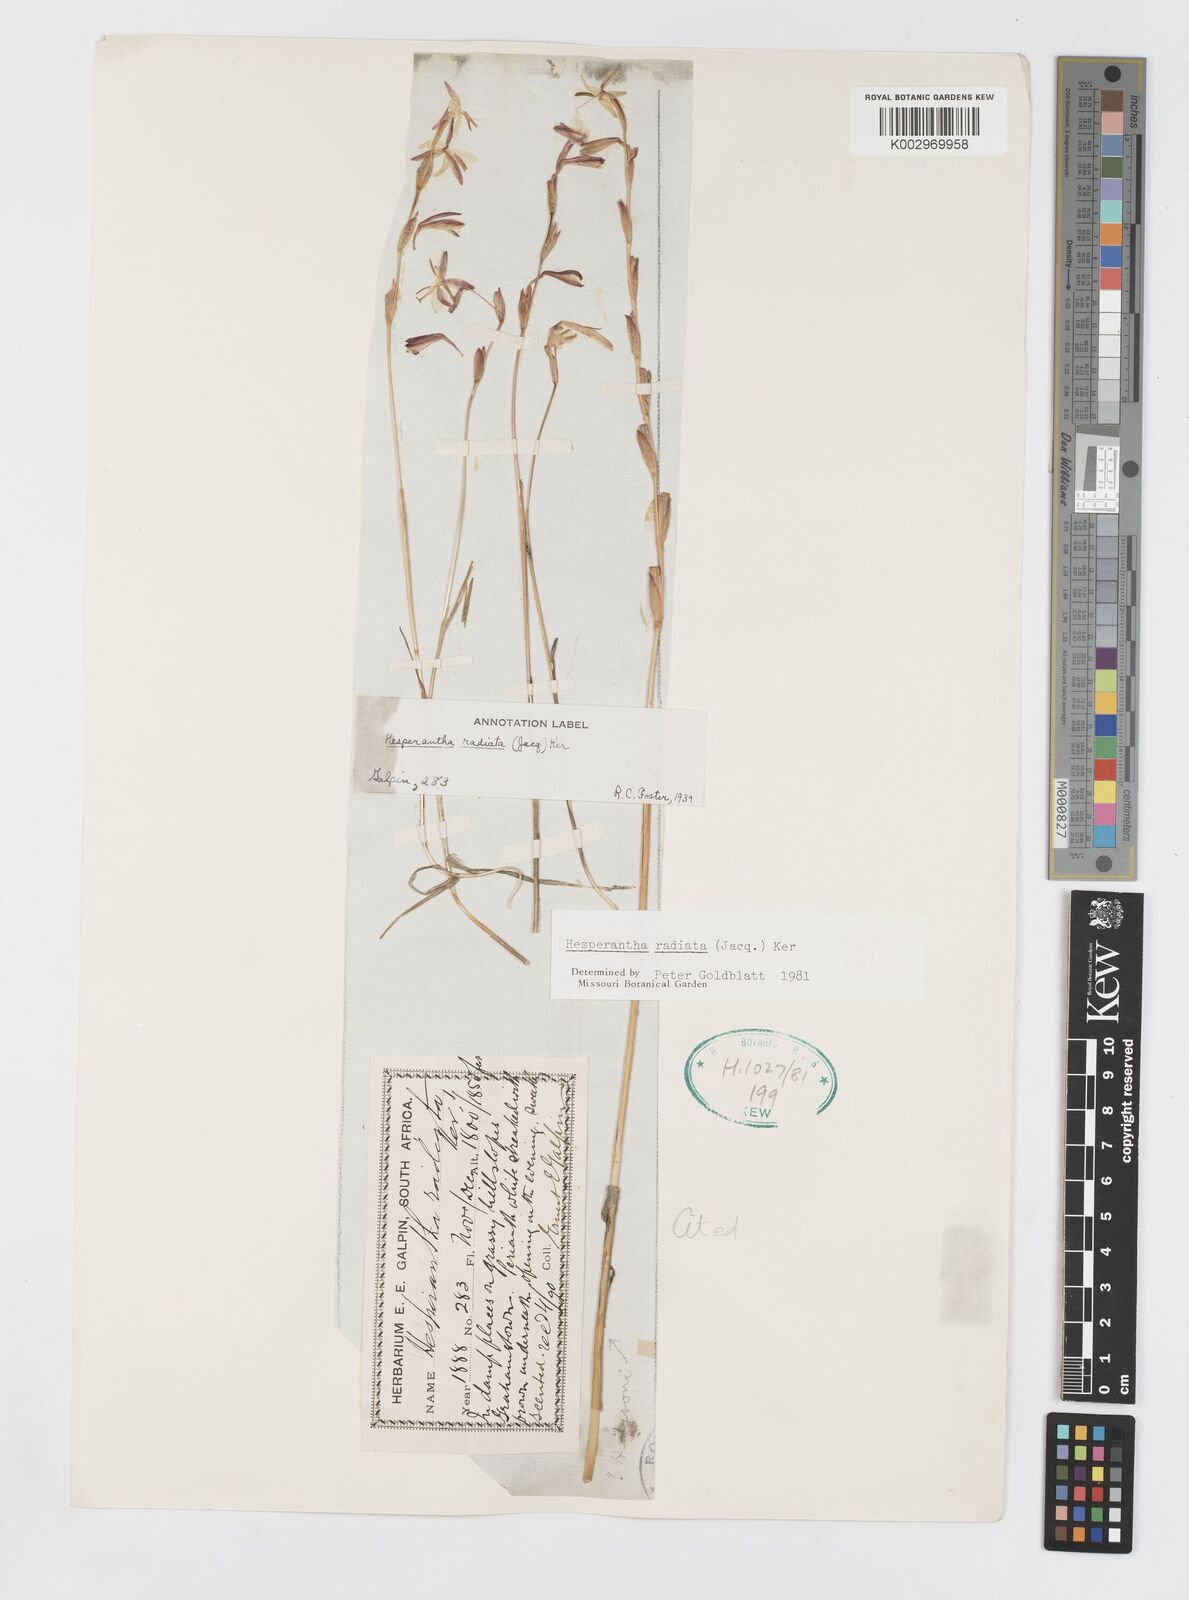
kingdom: Plantae
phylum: Tracheophyta
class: Liliopsida
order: Asparagales
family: Iridaceae
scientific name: Iridaceae
